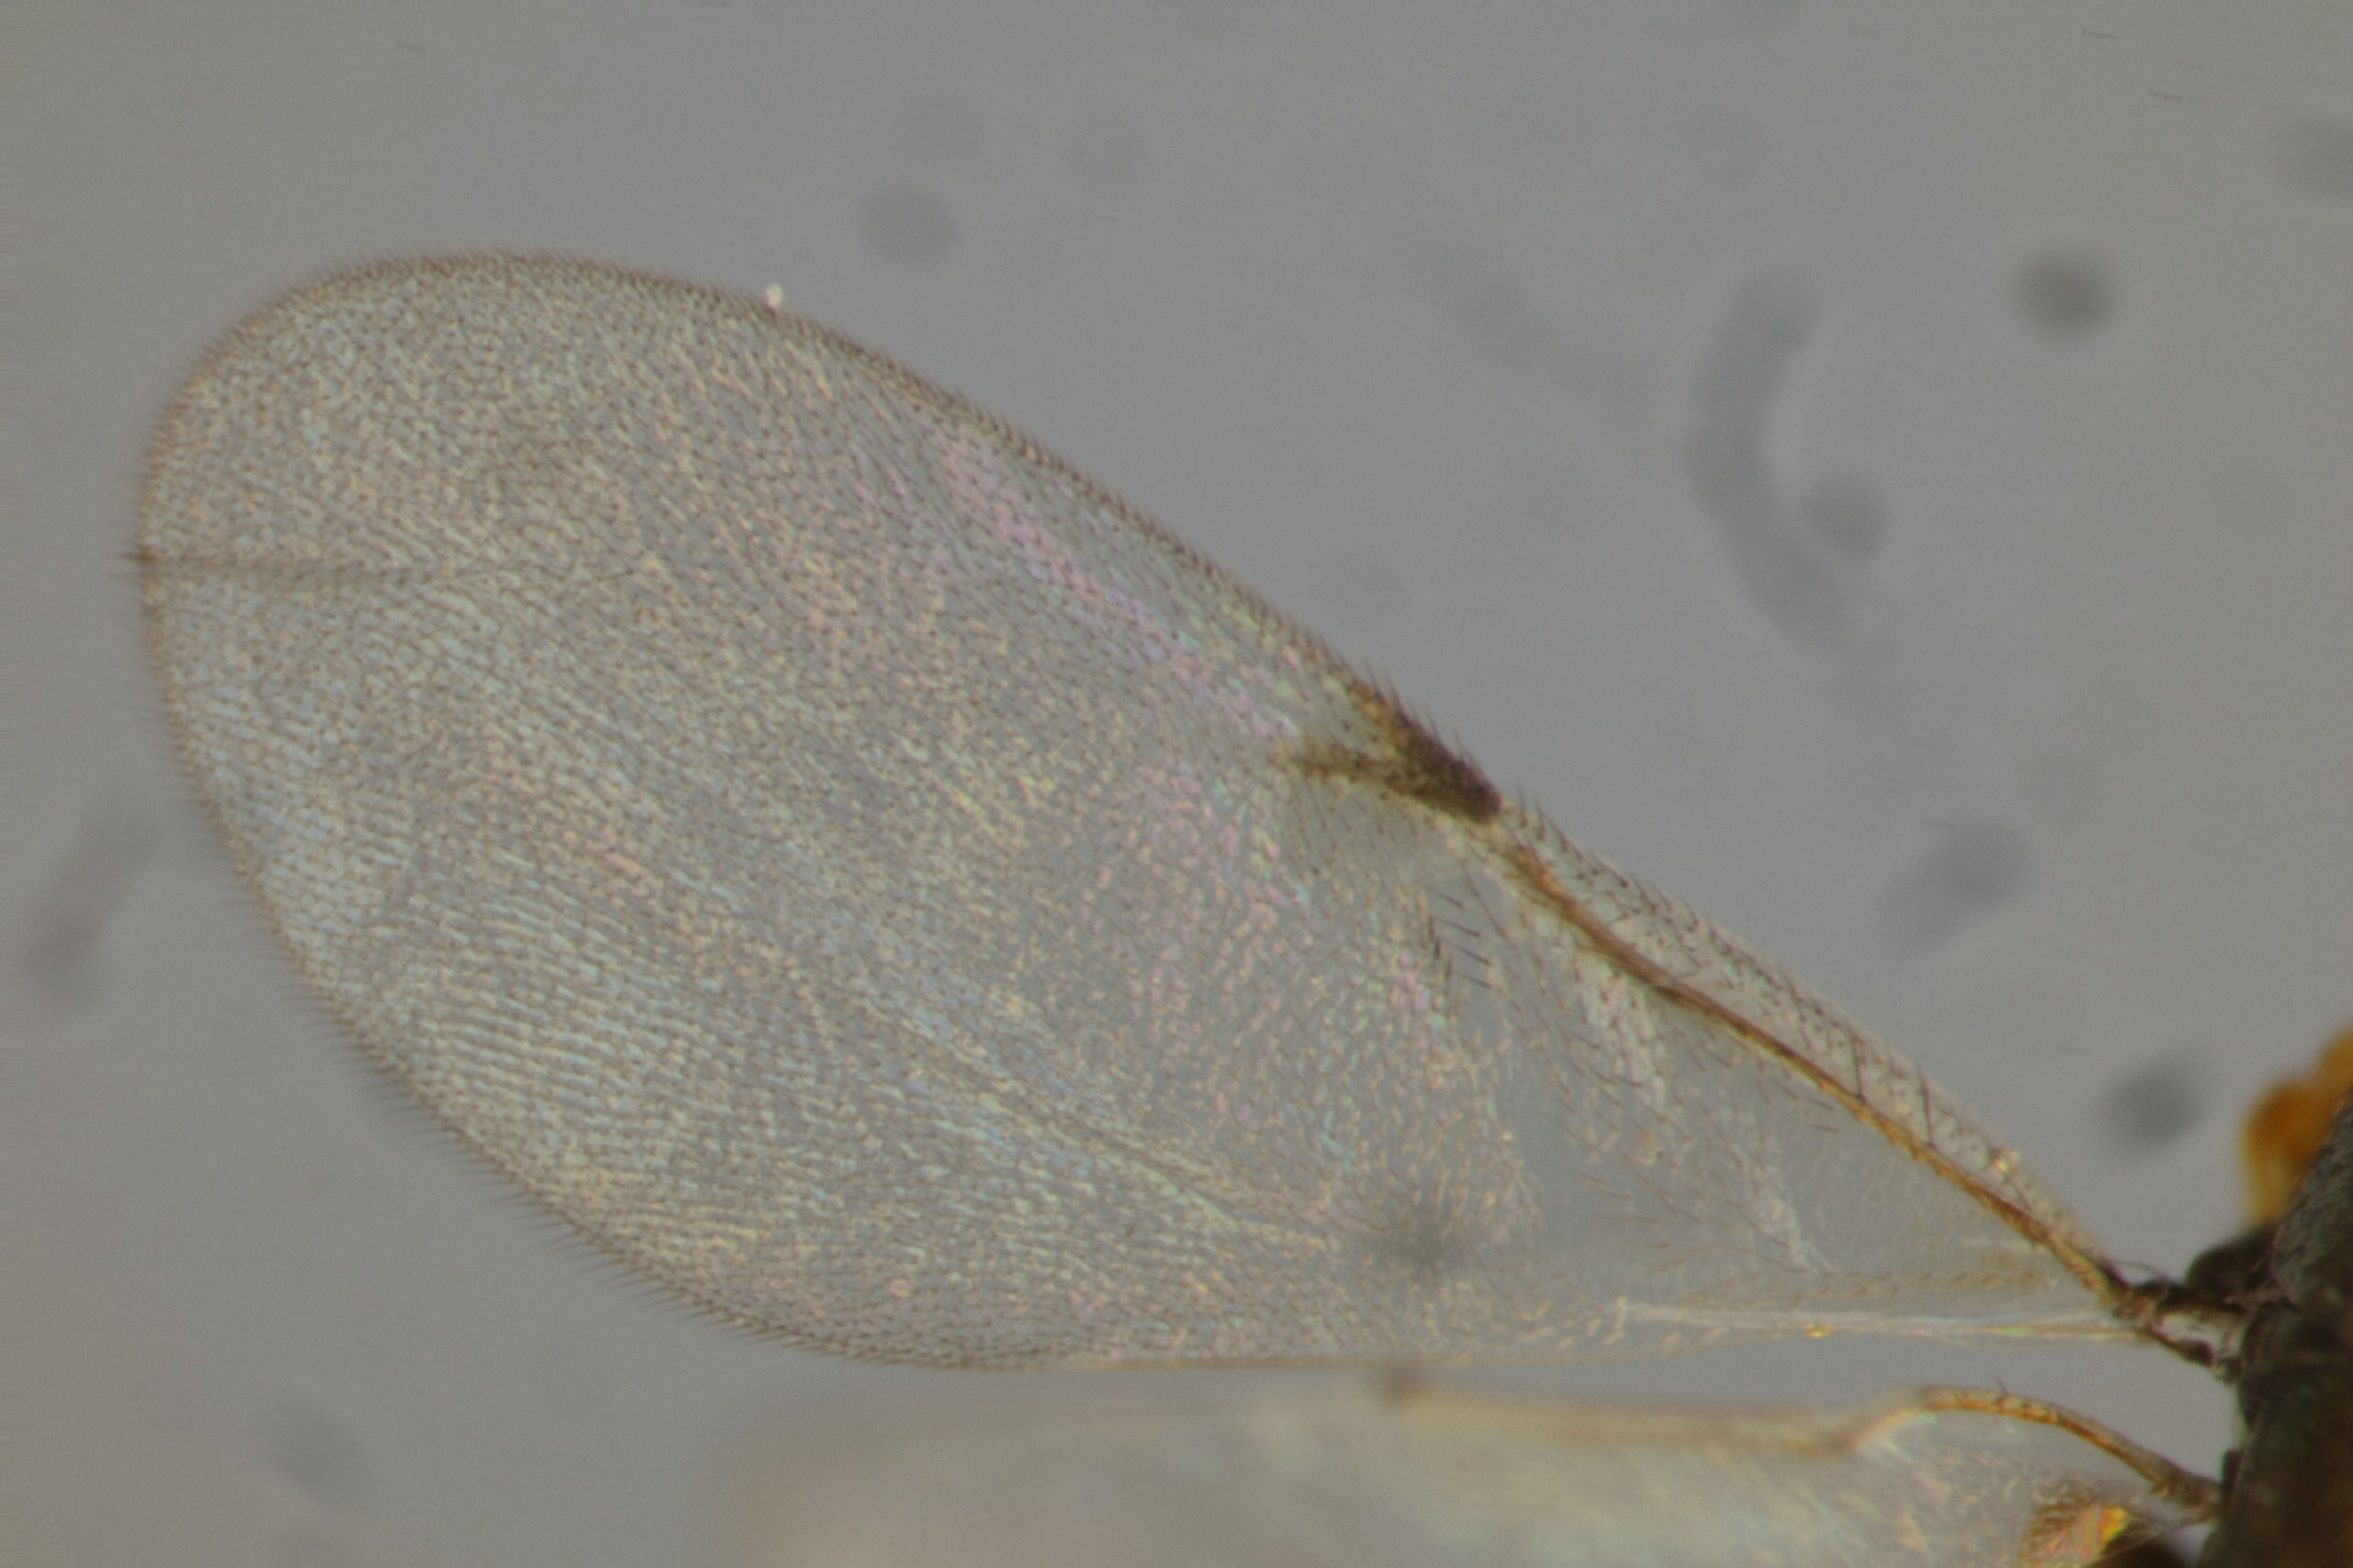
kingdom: Animalia
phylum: Arthropoda
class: Insecta
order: Hymenoptera
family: Encyrtidae
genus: Pseudencyrtus
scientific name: Pseudencyrtus idmon
